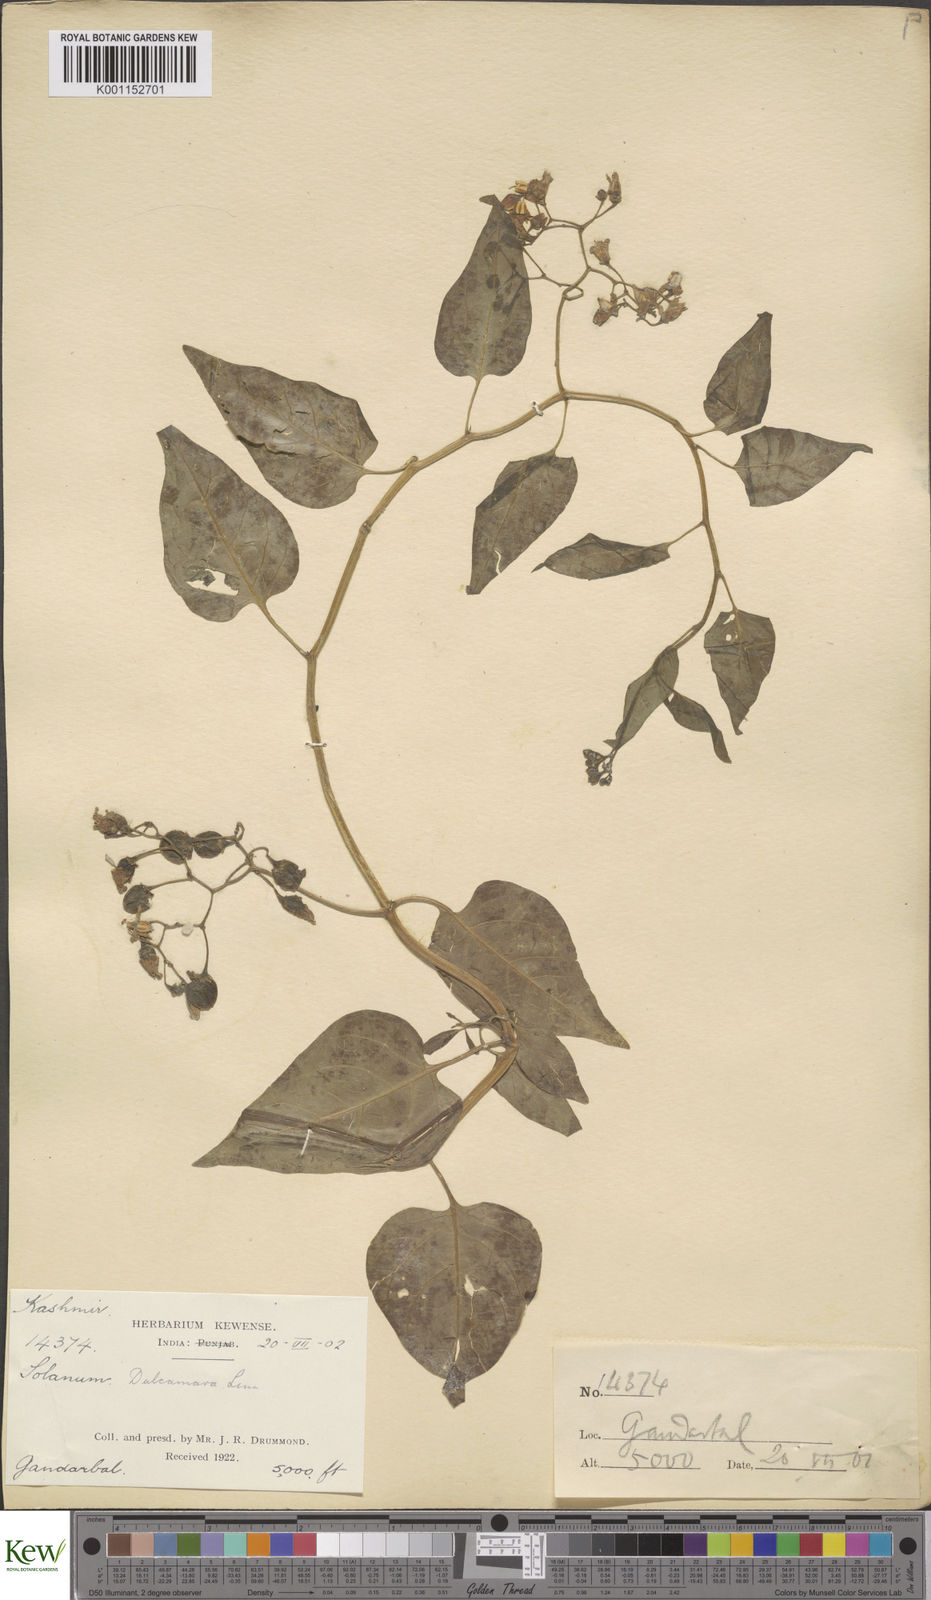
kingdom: Plantae
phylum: Tracheophyta
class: Magnoliopsida
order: Solanales
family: Solanaceae
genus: Solanum
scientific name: Solanum dulcamara
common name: Climbing nightshade
